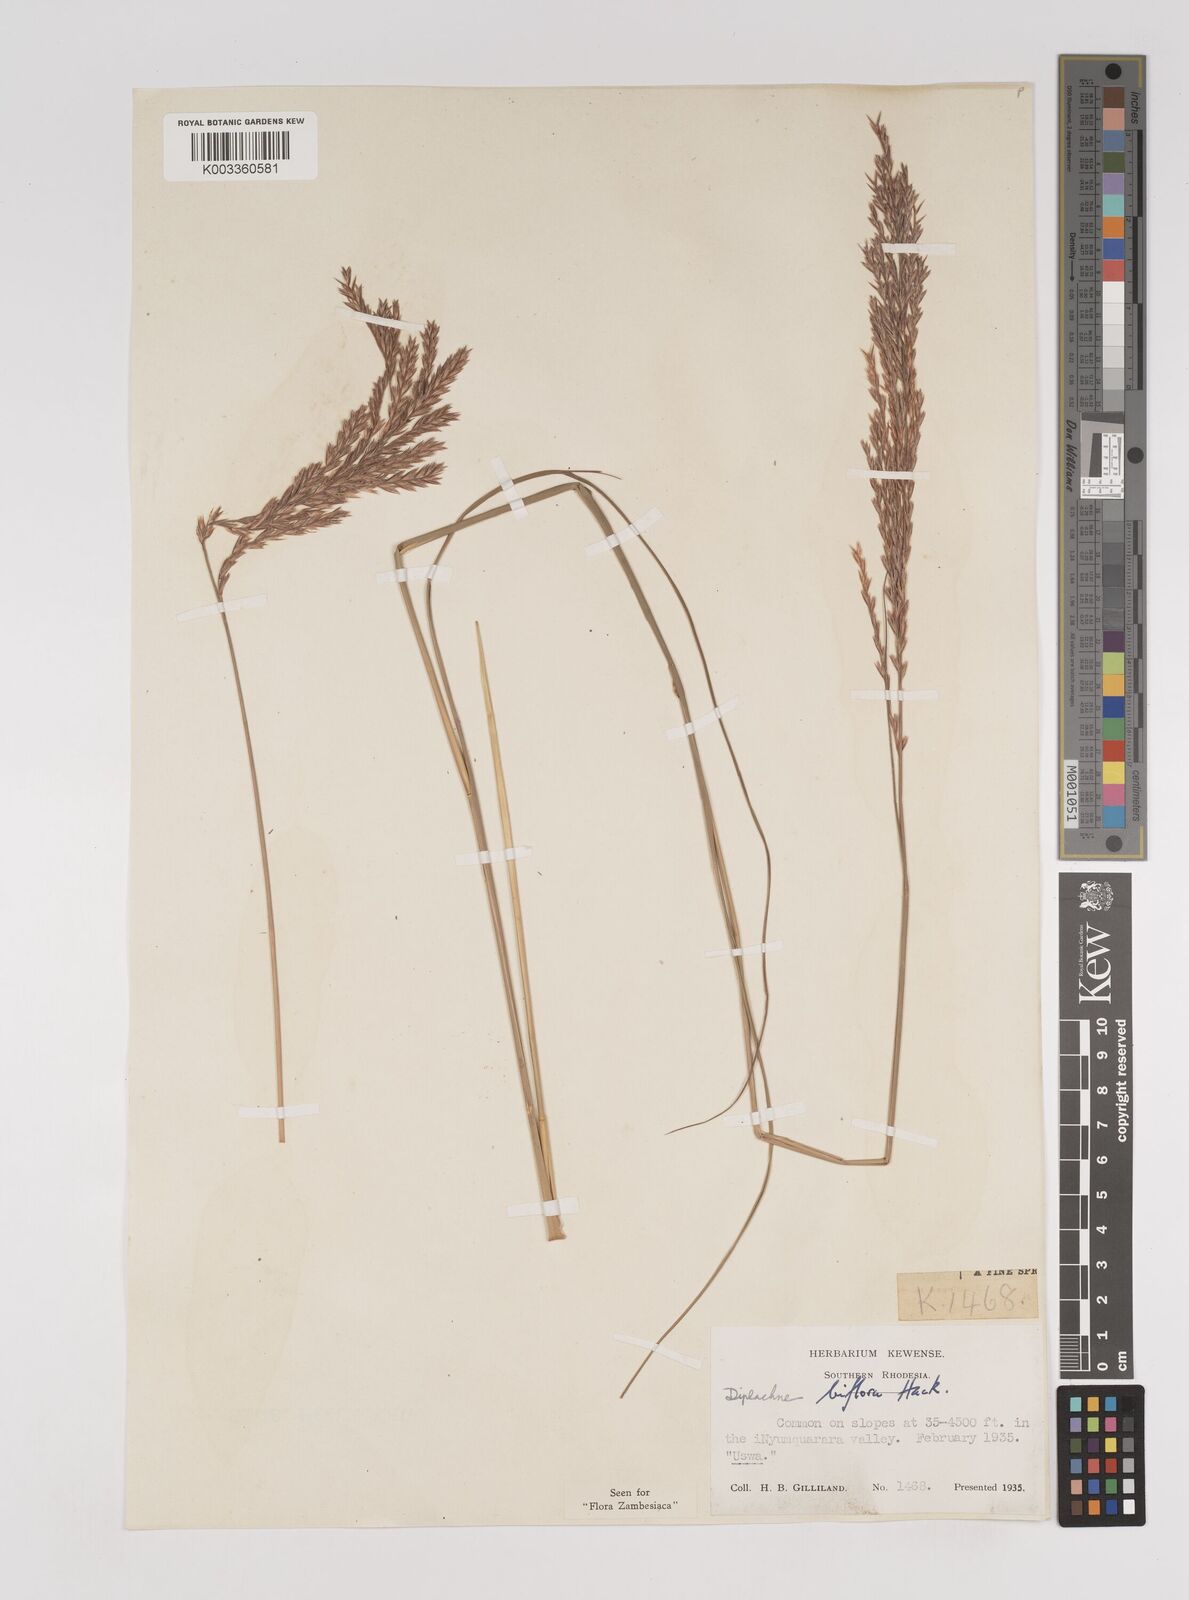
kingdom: Plantae
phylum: Tracheophyta
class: Liliopsida
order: Poales
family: Poaceae
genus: Bewsia
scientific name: Bewsia biflora
